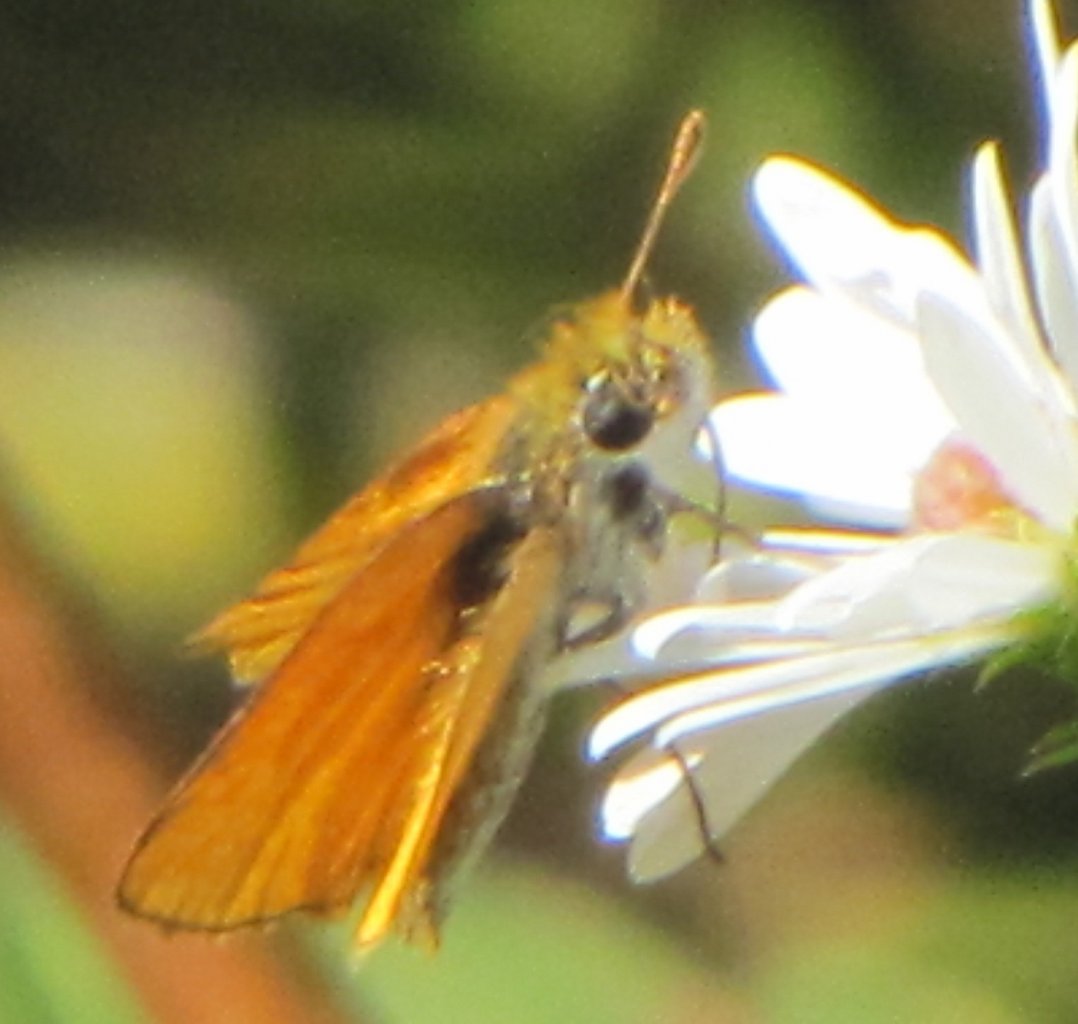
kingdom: Animalia
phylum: Arthropoda
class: Insecta
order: Lepidoptera
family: Hesperiidae
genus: Copaeodes
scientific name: Copaeodes minima
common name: Southern Skipperling
